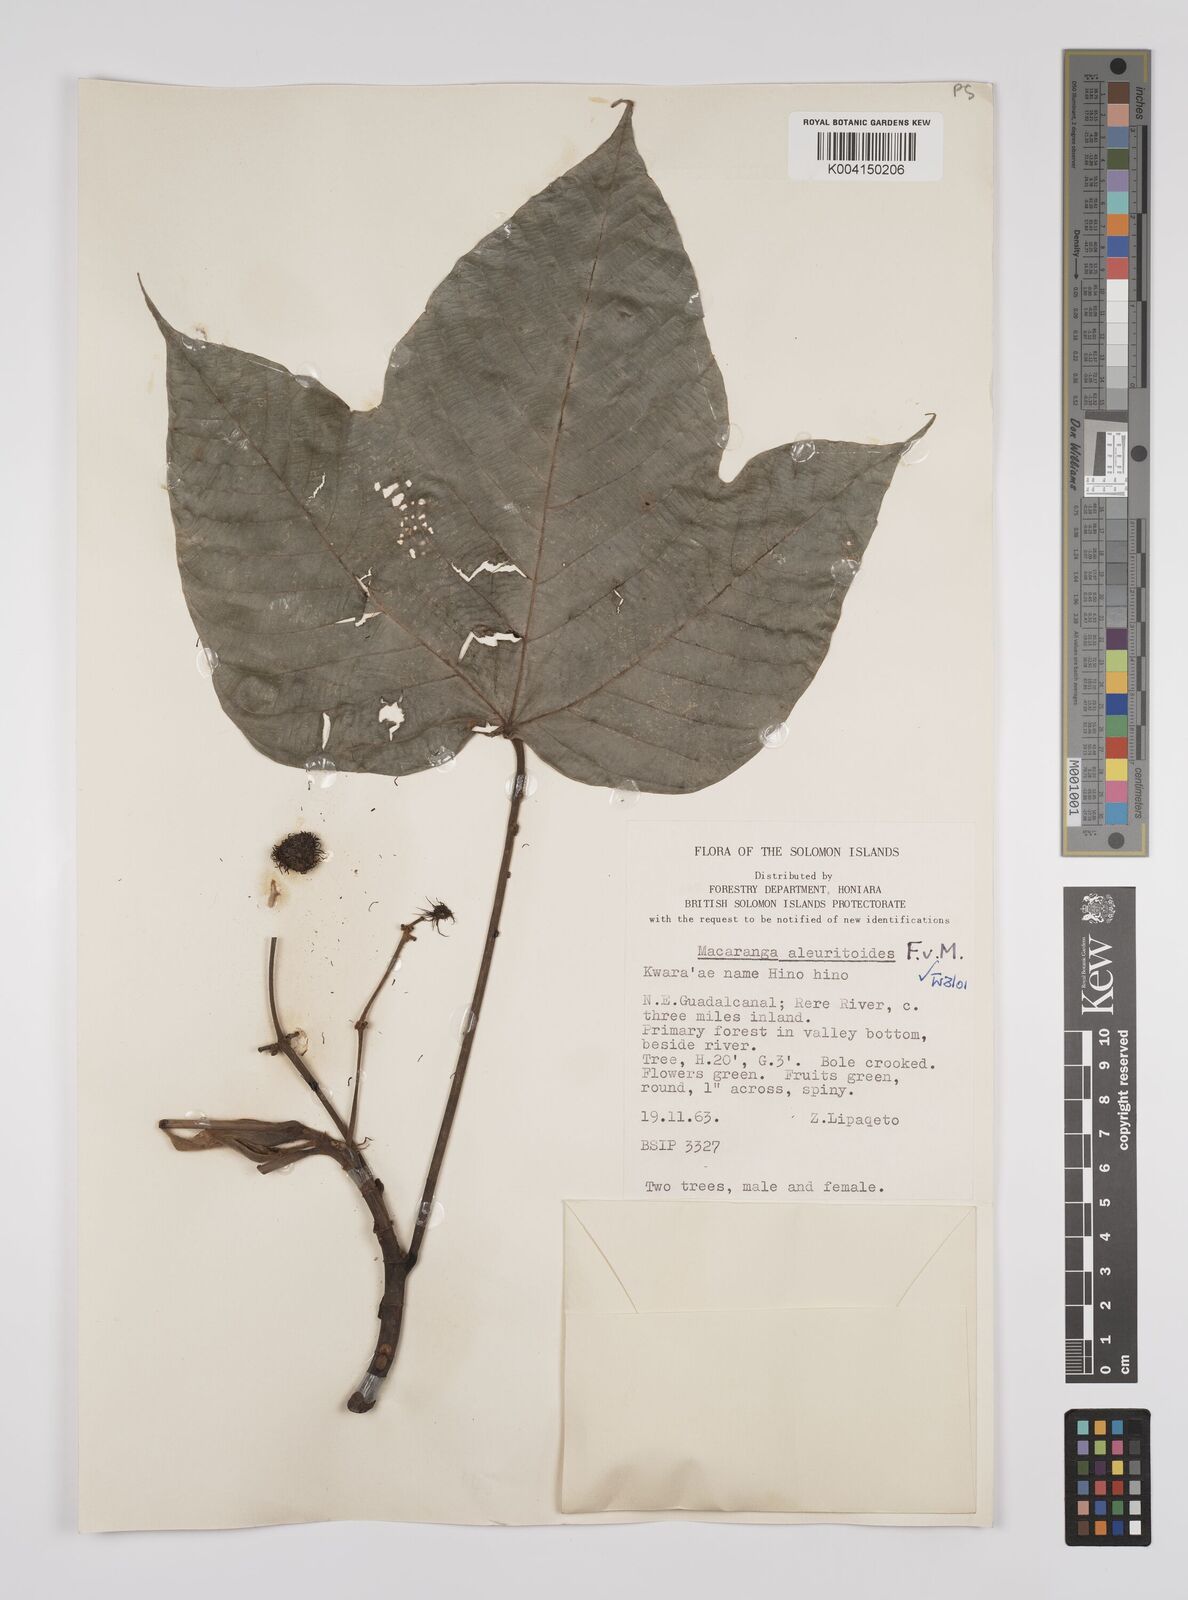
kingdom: Plantae
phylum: Tracheophyta
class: Magnoliopsida
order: Malpighiales
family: Euphorbiaceae
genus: Macaranga
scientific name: Macaranga aleuritoides
